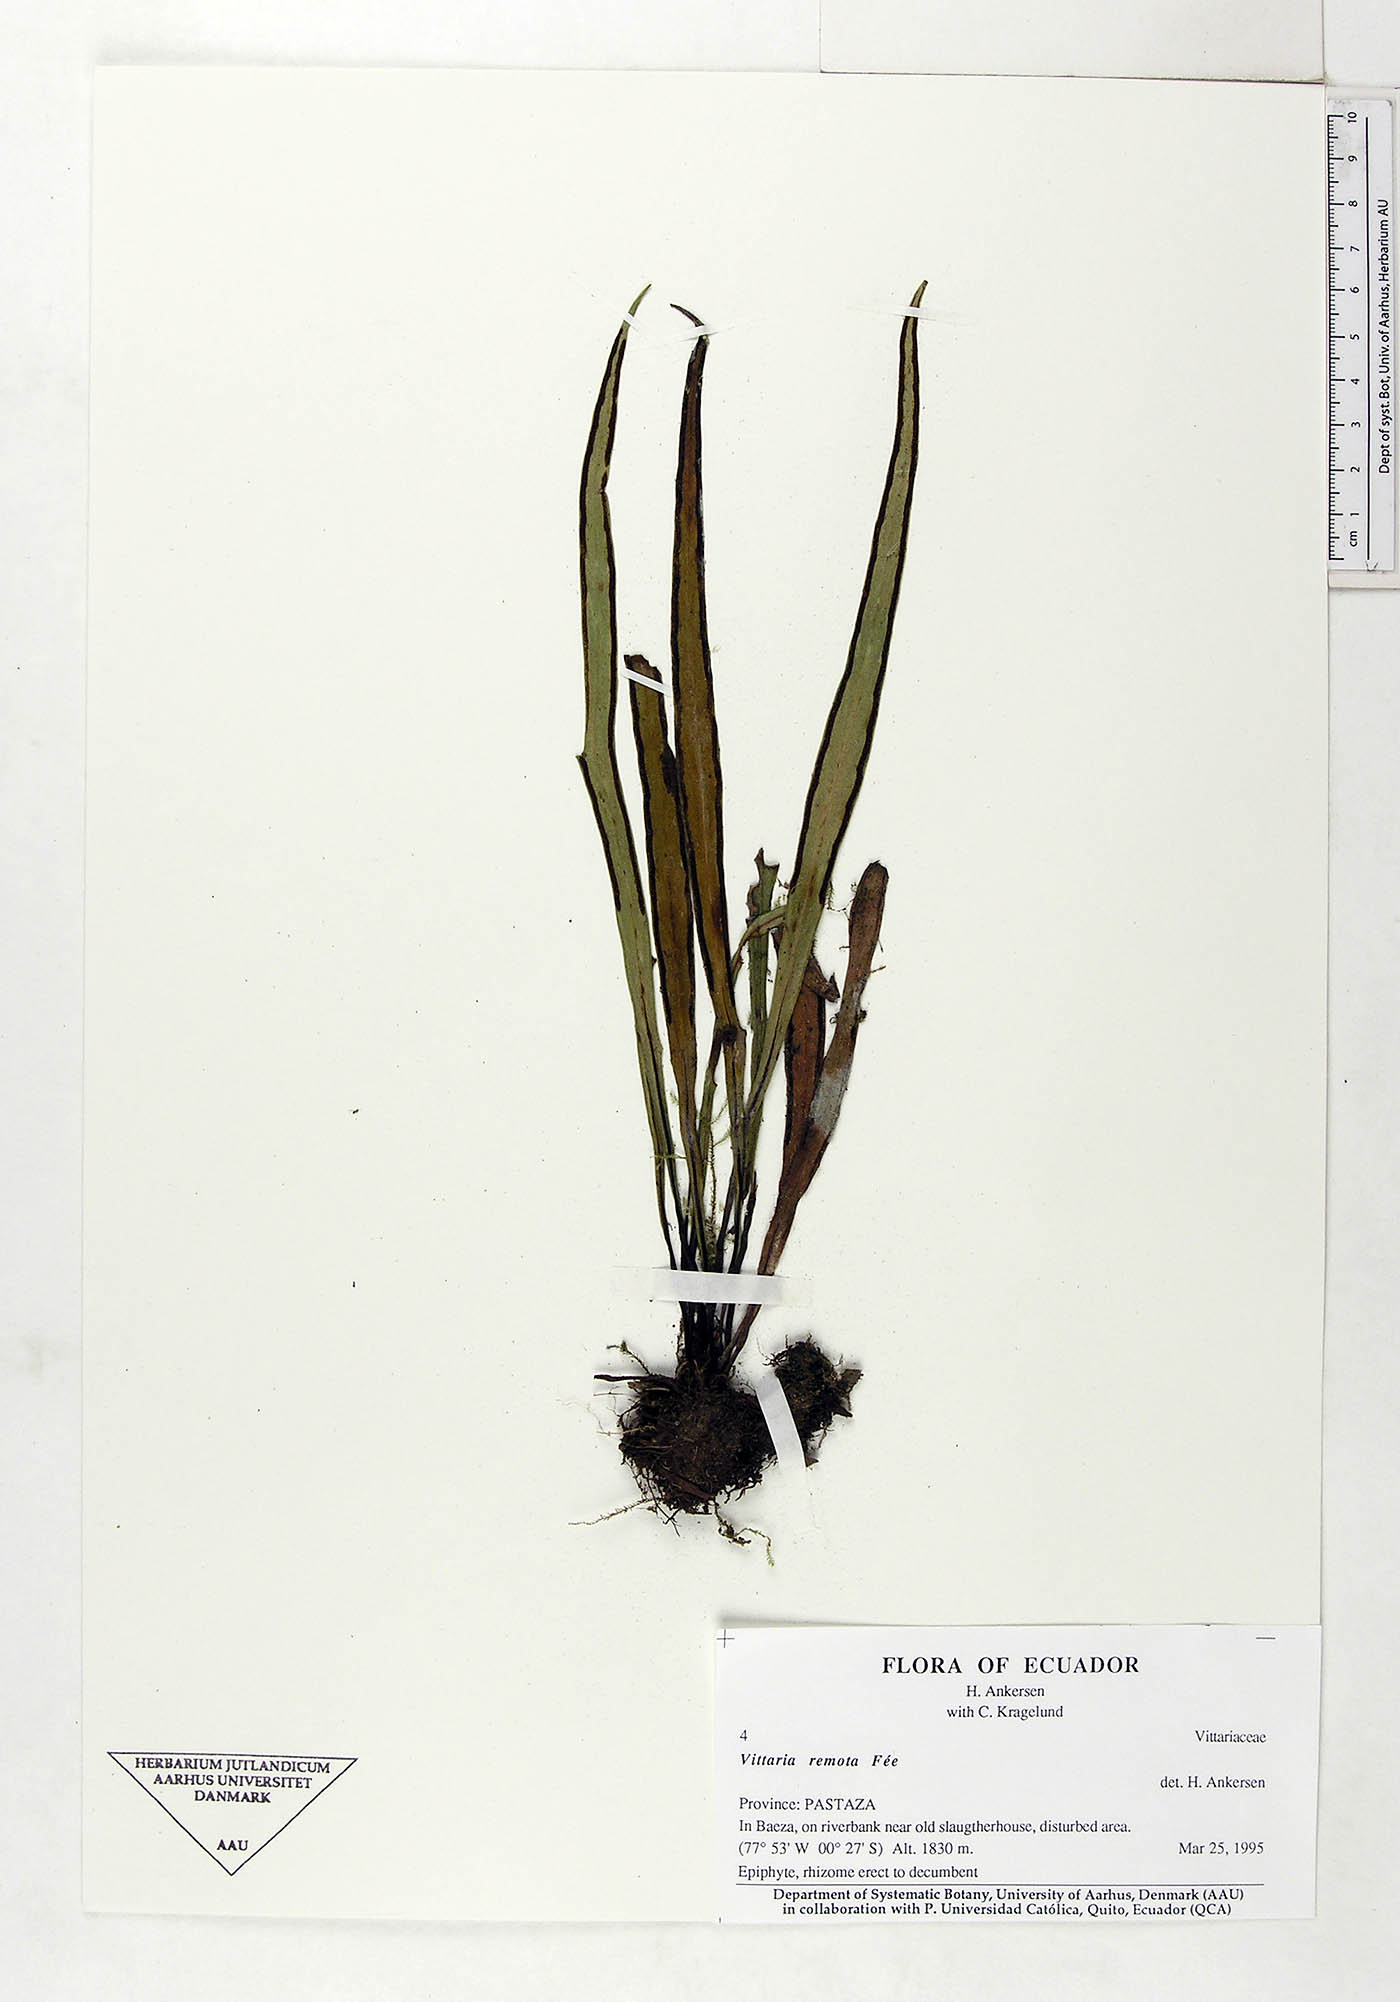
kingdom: Plantae
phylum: Tracheophyta
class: Polypodiopsida
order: Polypodiales
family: Pteridaceae
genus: Radiovittaria
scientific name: Radiovittaria remota
